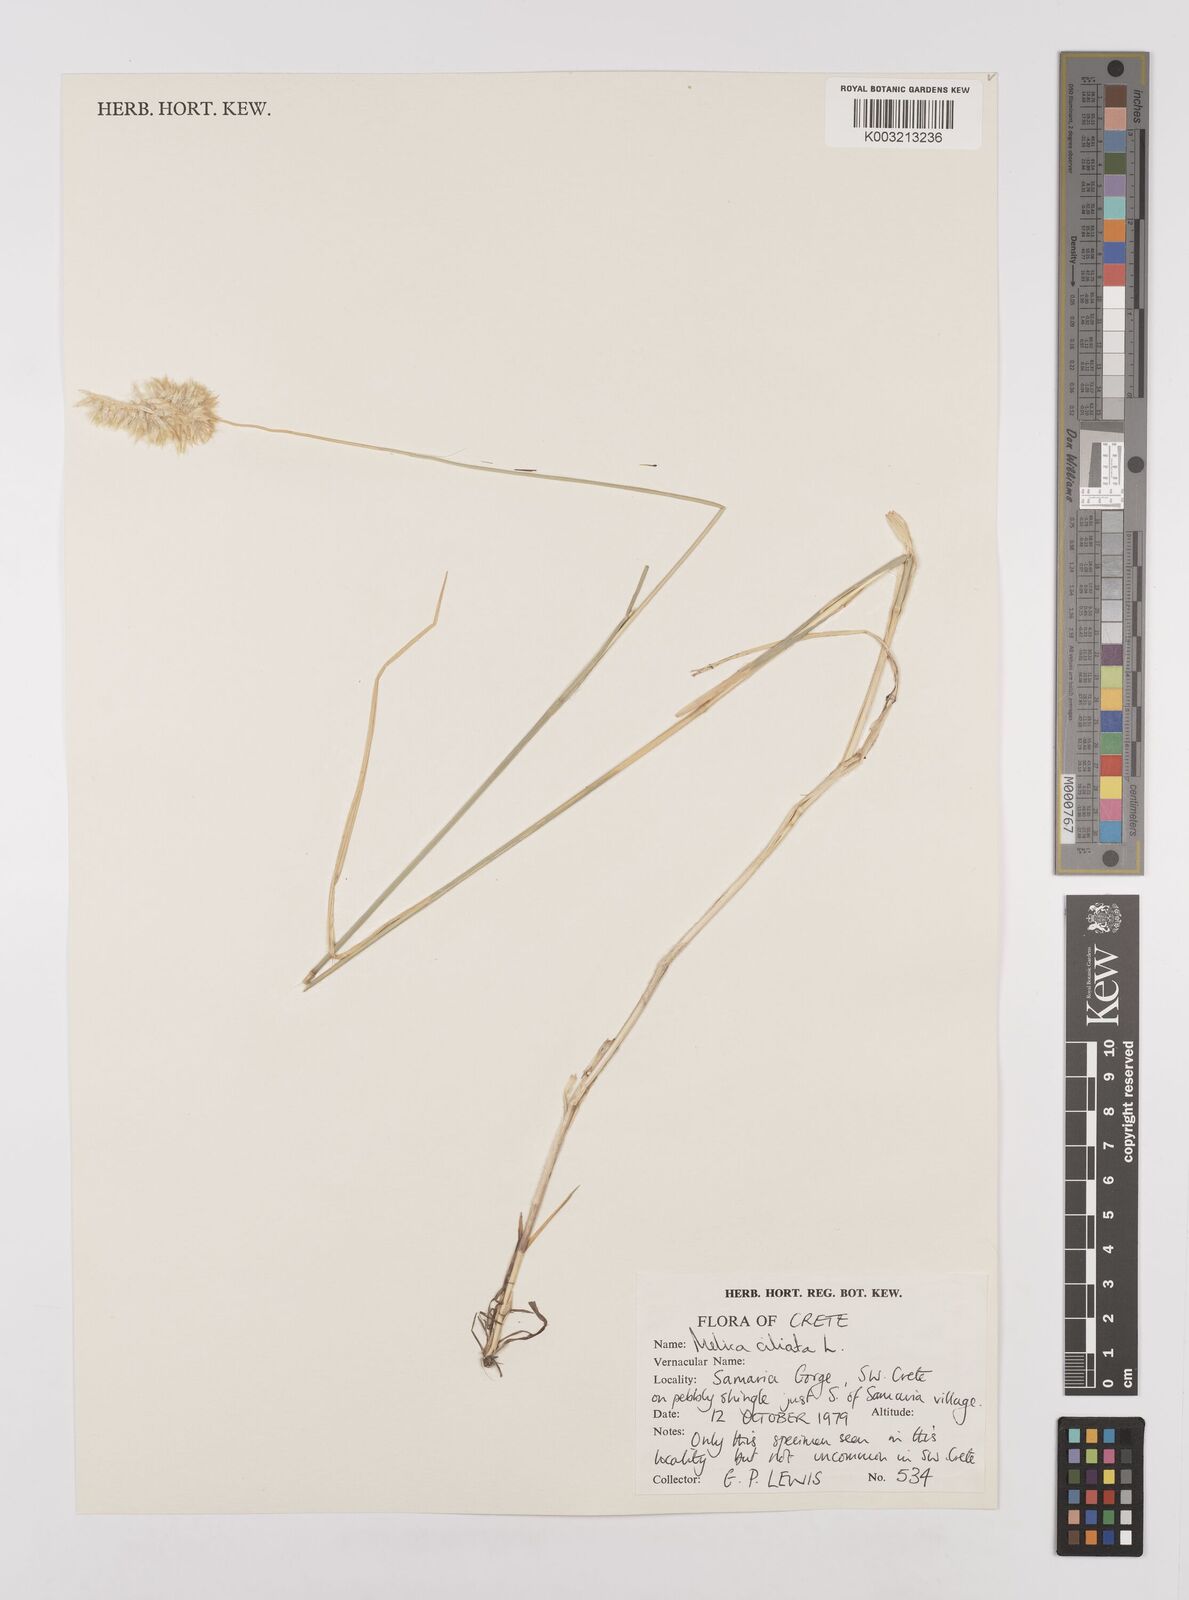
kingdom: Plantae
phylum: Tracheophyta
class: Liliopsida
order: Poales
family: Poaceae
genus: Melica
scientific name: Melica ciliata
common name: Hairy melicgrass
